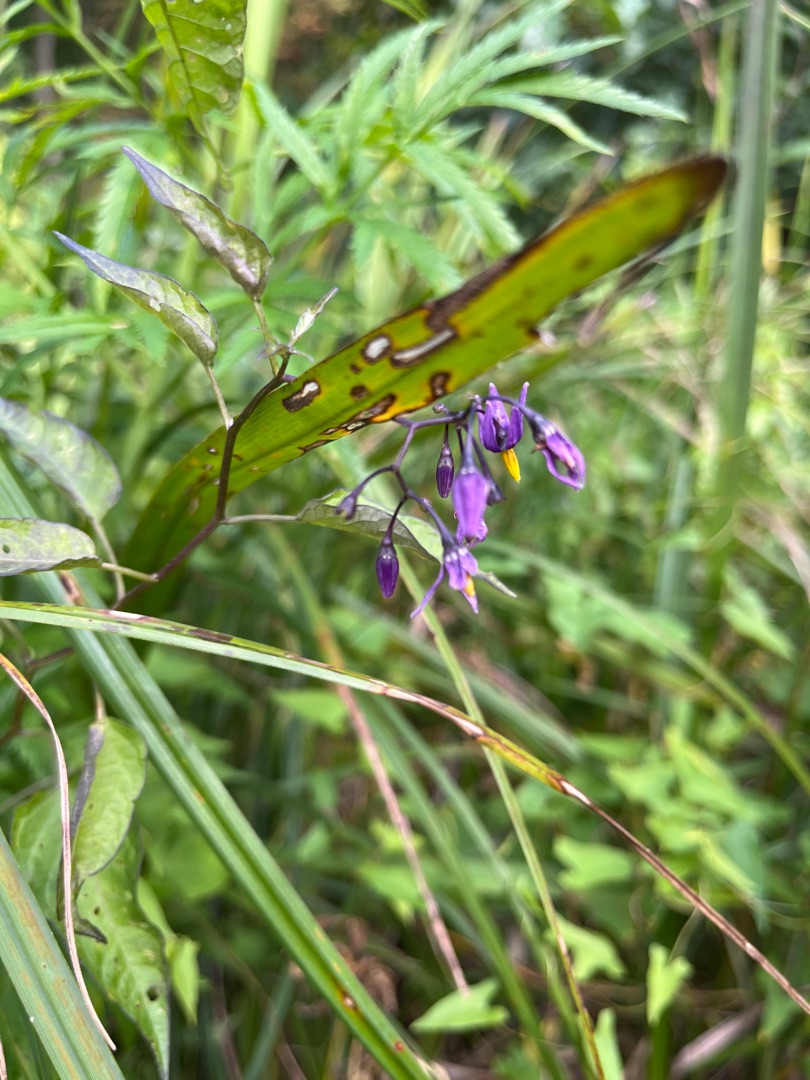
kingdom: Plantae
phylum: Tracheophyta
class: Magnoliopsida
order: Solanales
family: Solanaceae
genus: Solanum
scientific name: Solanum dulcamara
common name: Bittersød natskygge
